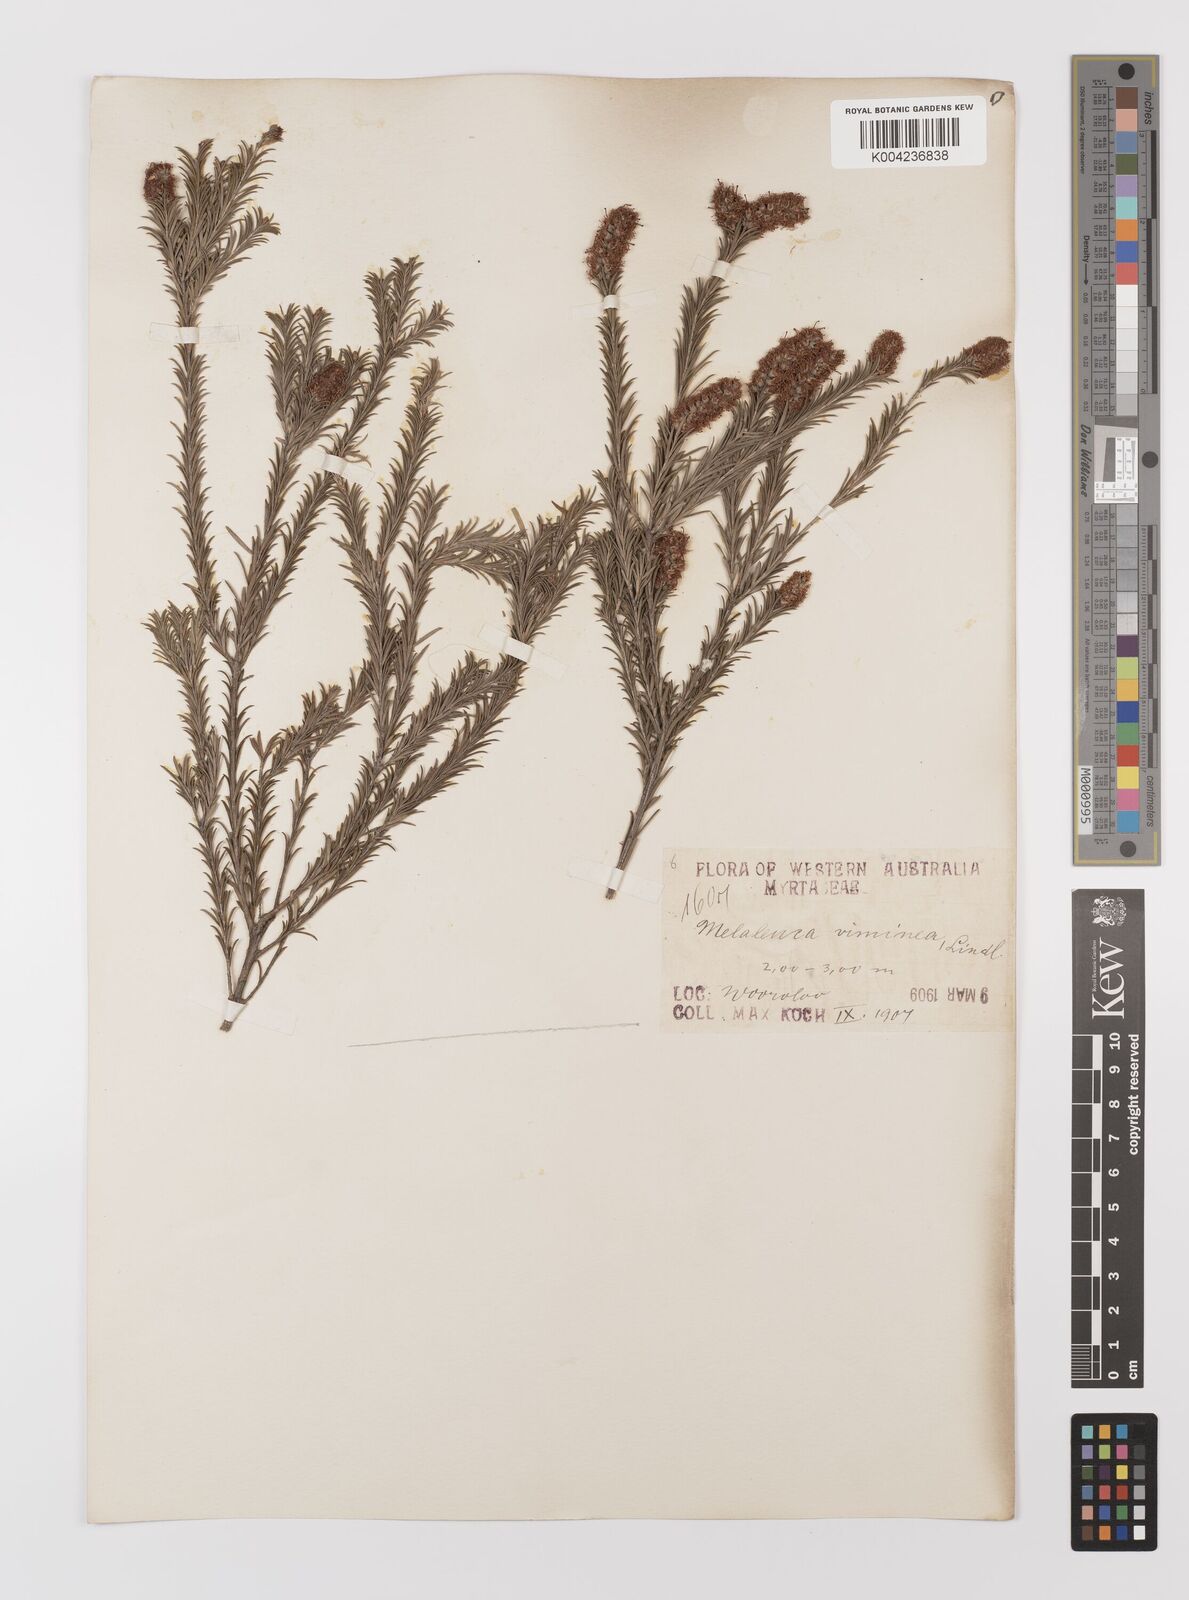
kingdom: Plantae
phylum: Tracheophyta
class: Magnoliopsida
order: Myrtales
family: Myrtaceae
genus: Melaleuca
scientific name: Melaleuca viminea
